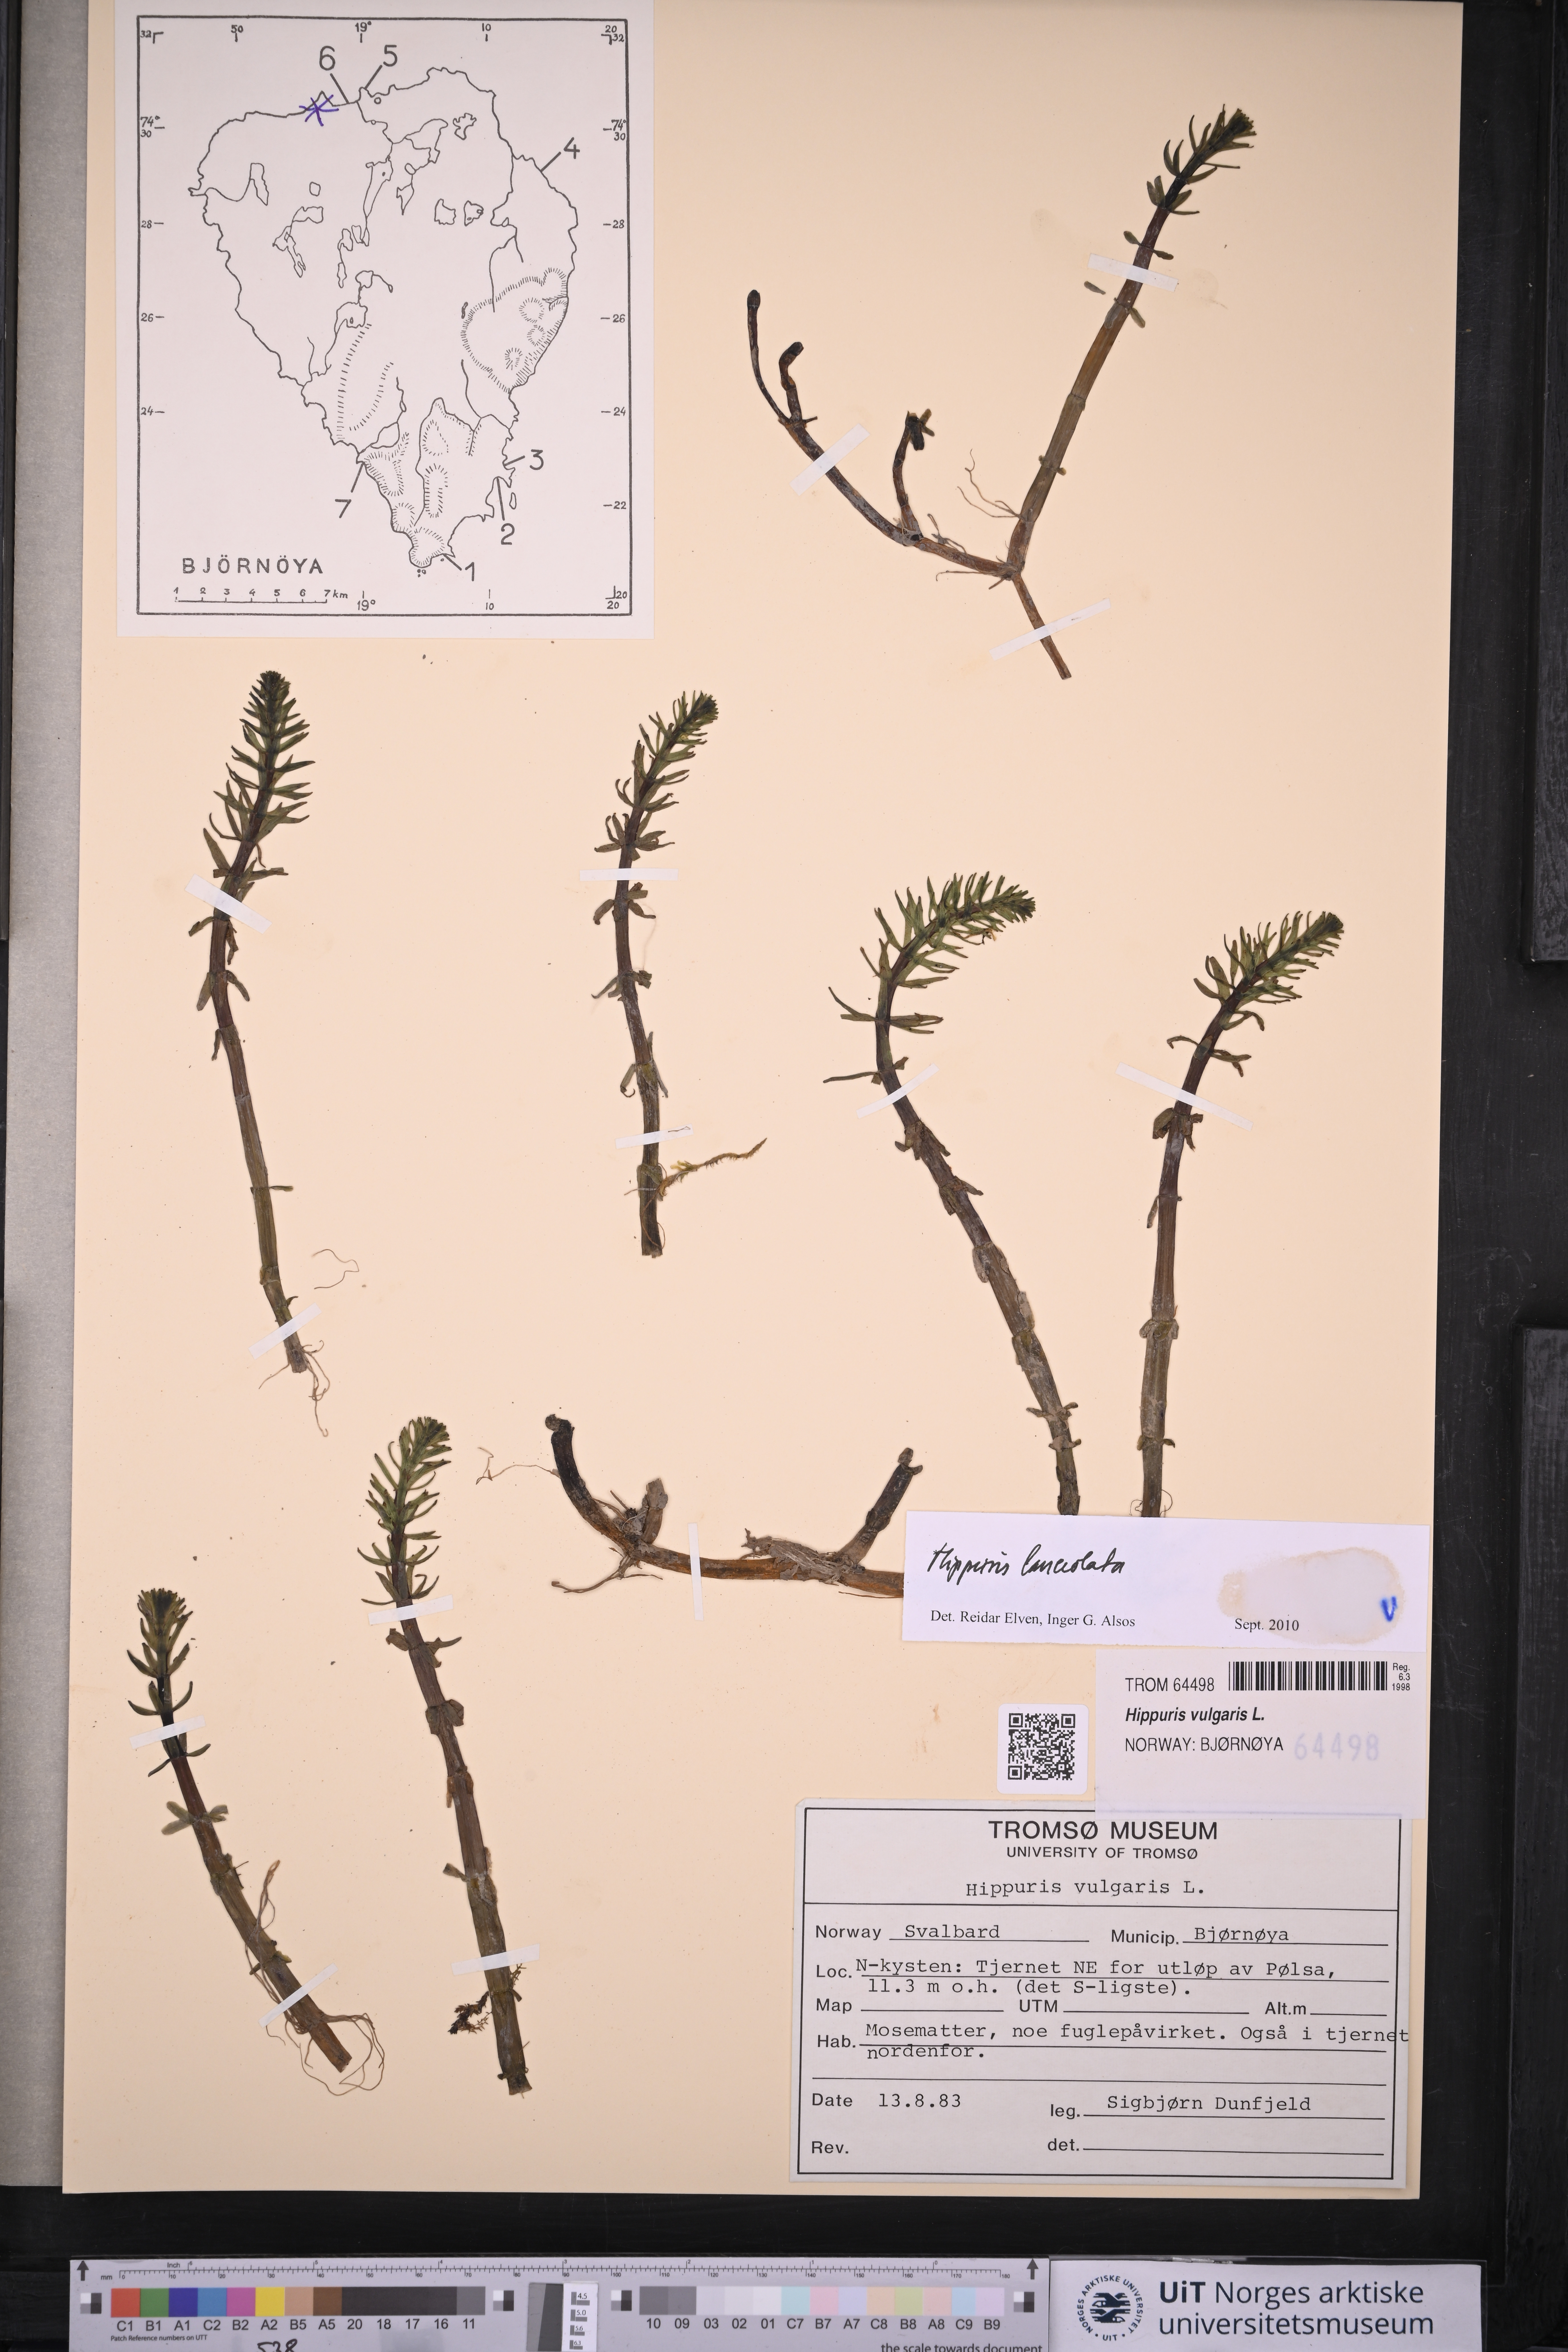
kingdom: Plantae
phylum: Tracheophyta
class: Magnoliopsida
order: Lamiales
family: Plantaginaceae
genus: Hippuris
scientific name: Hippuris lanceolata
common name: Lance-leaved mare's-tail
